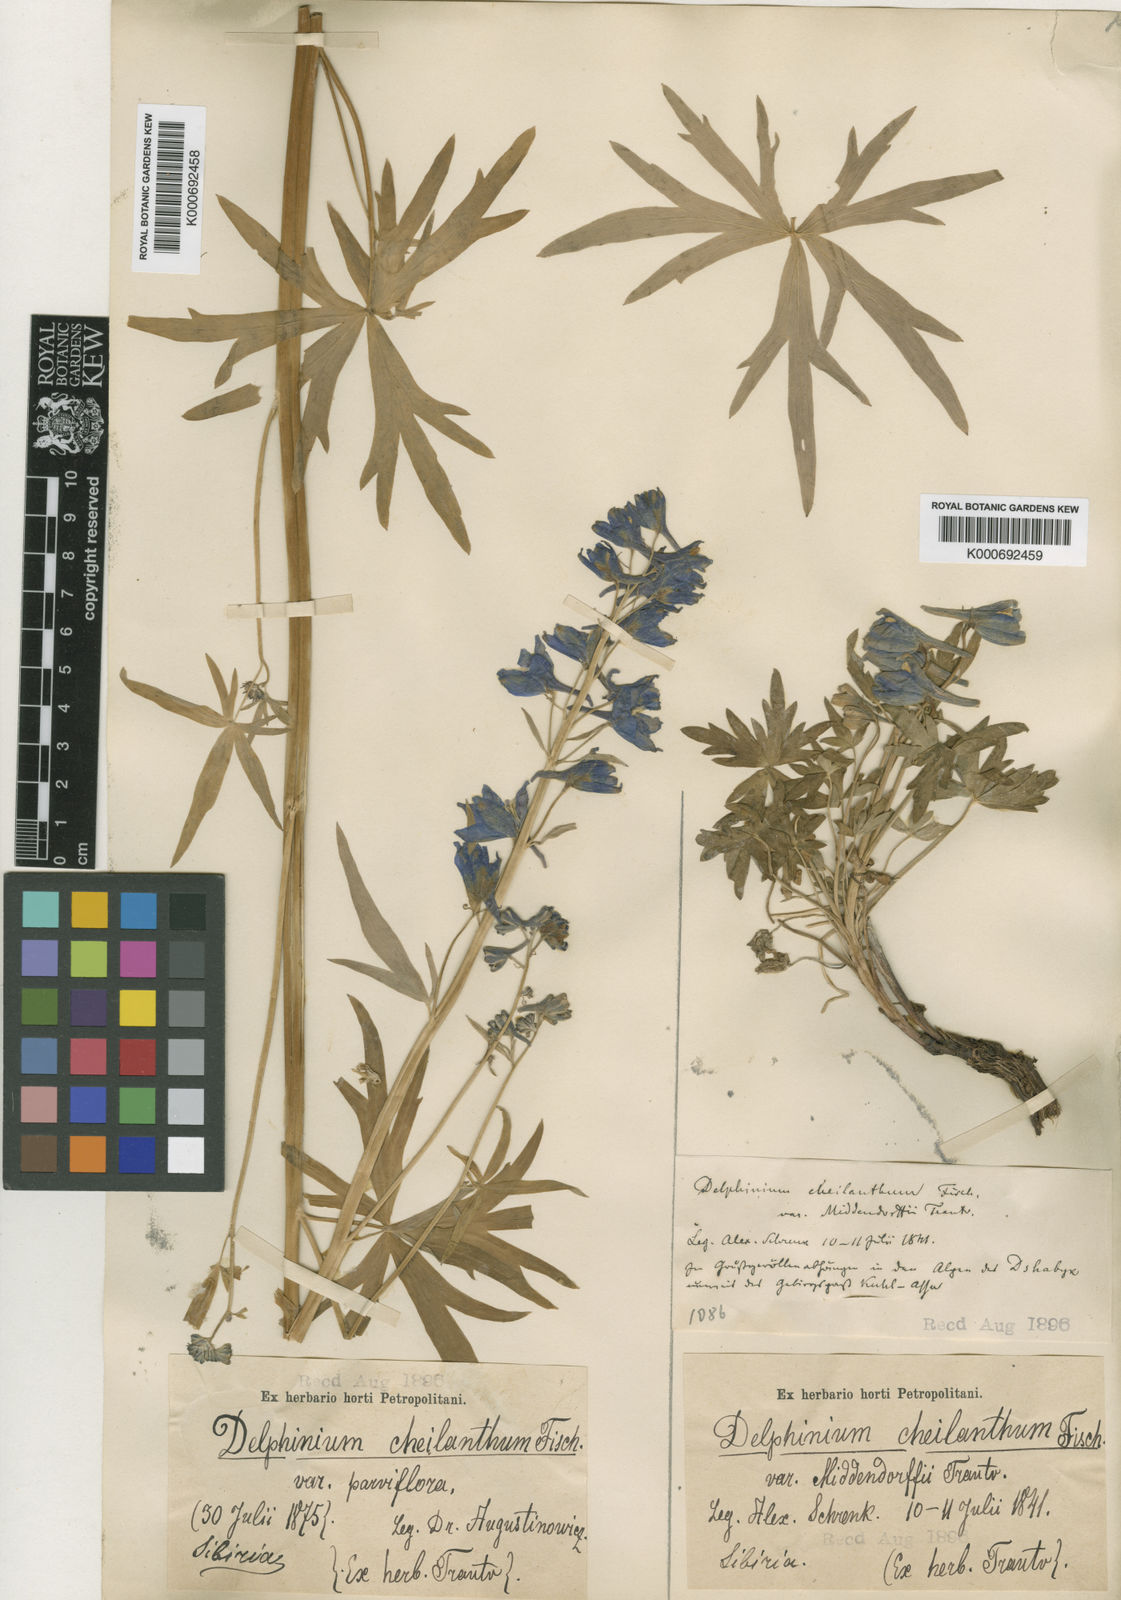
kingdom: Plantae
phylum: Tracheophyta
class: Magnoliopsida
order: Ranunculales
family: Ranunculaceae
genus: Delphinium
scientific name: Delphinium cheilanthum
